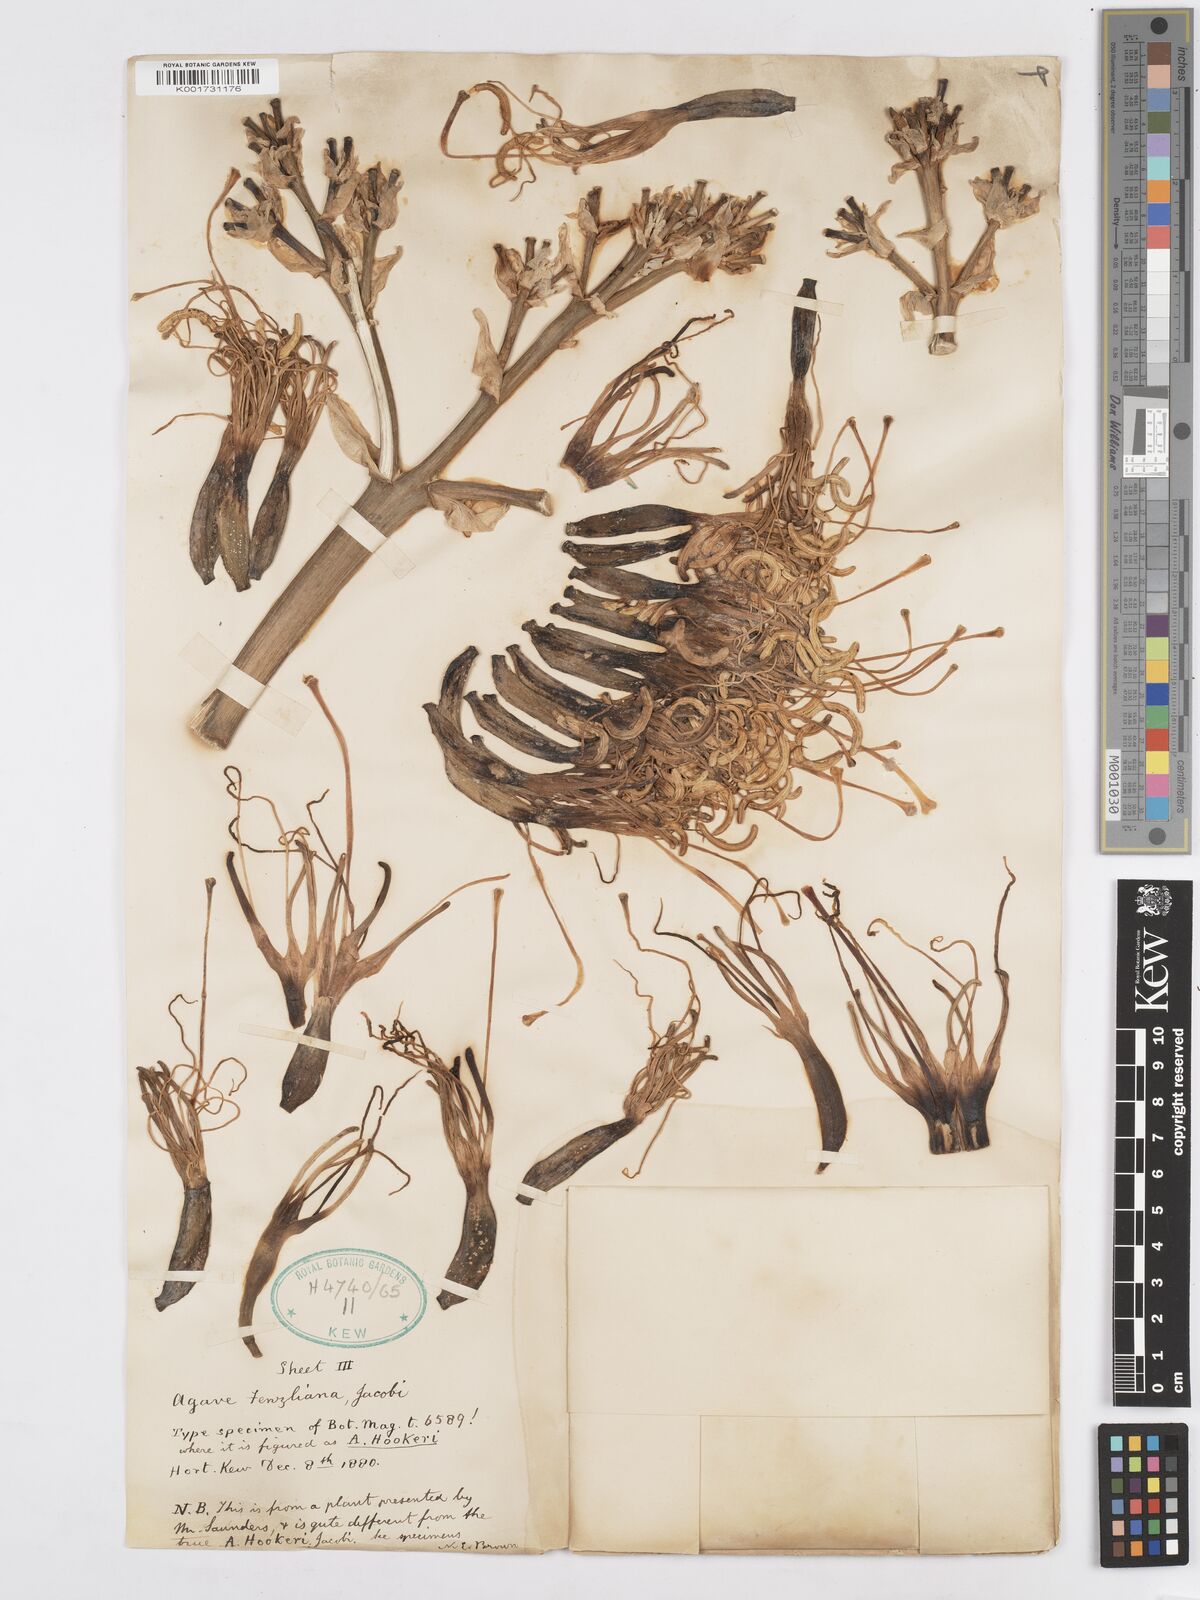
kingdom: Plantae
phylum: Tracheophyta
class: Liliopsida
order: Asparagales
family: Asparagaceae
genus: Agave
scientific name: Agave inaequidens
